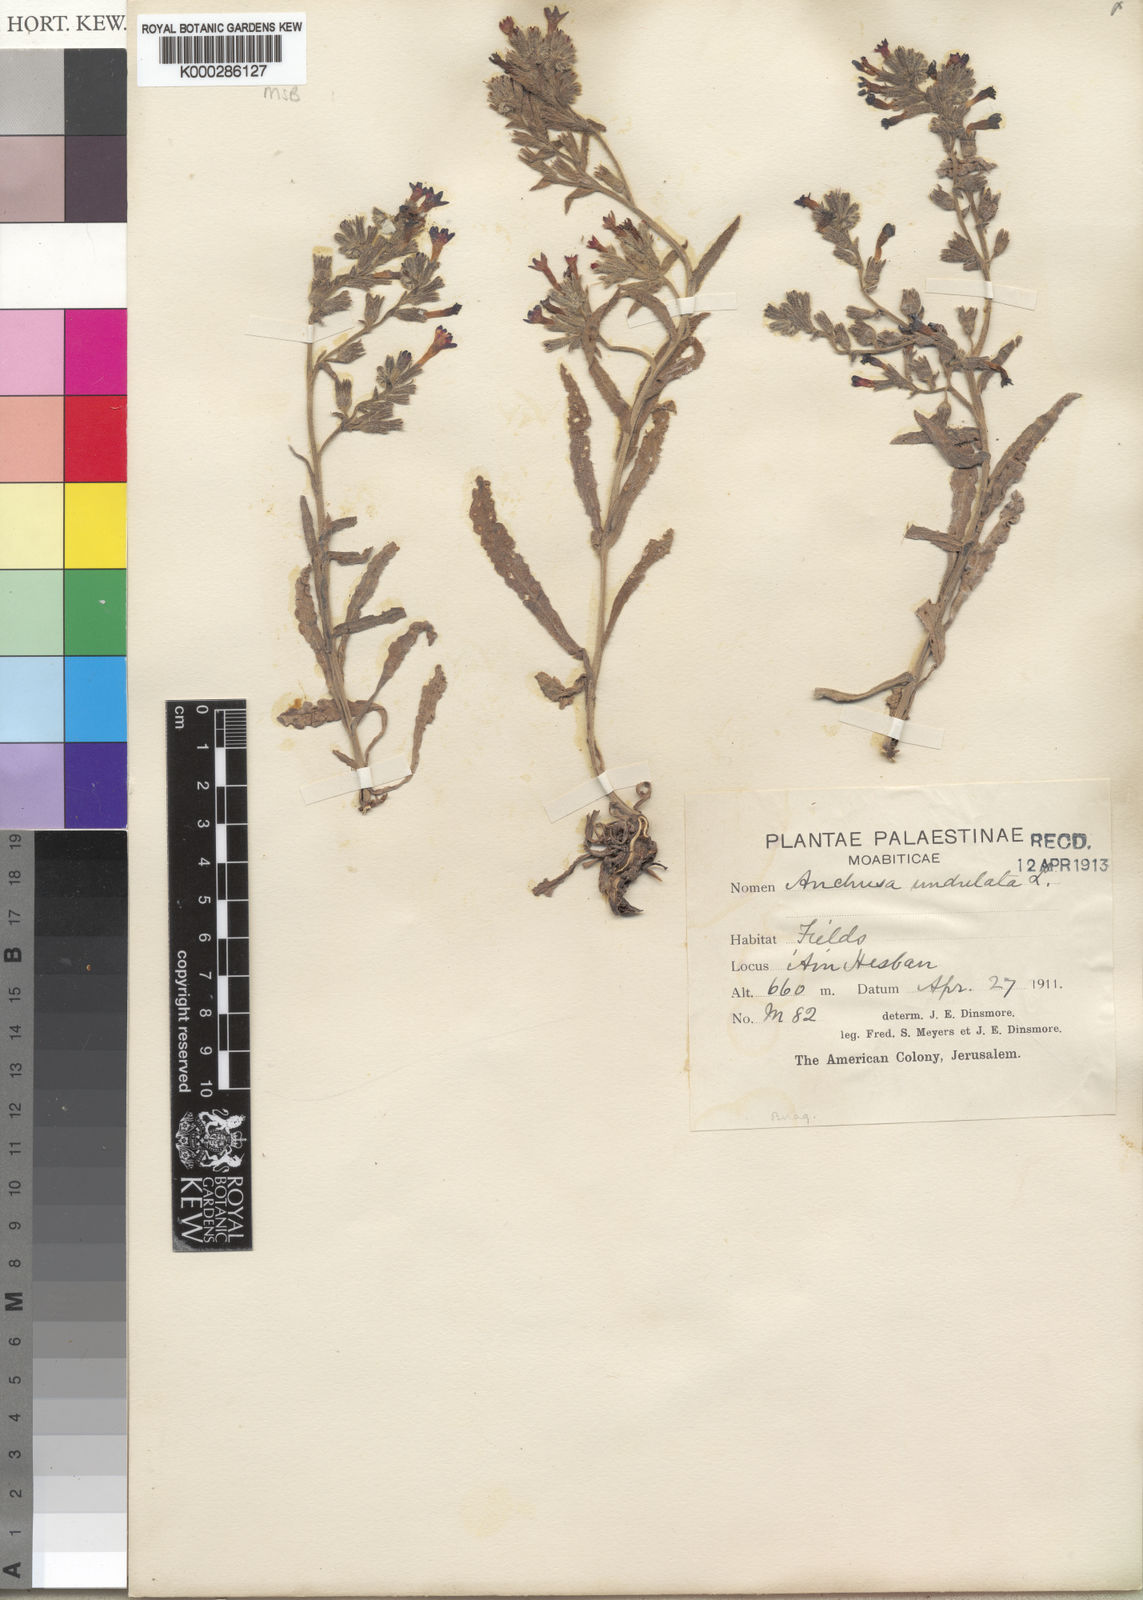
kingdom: Plantae
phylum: Tracheophyta
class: Magnoliopsida
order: Boraginales
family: Boraginaceae
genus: Anchusa
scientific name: Anchusa undulata
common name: Undulate alkanet
